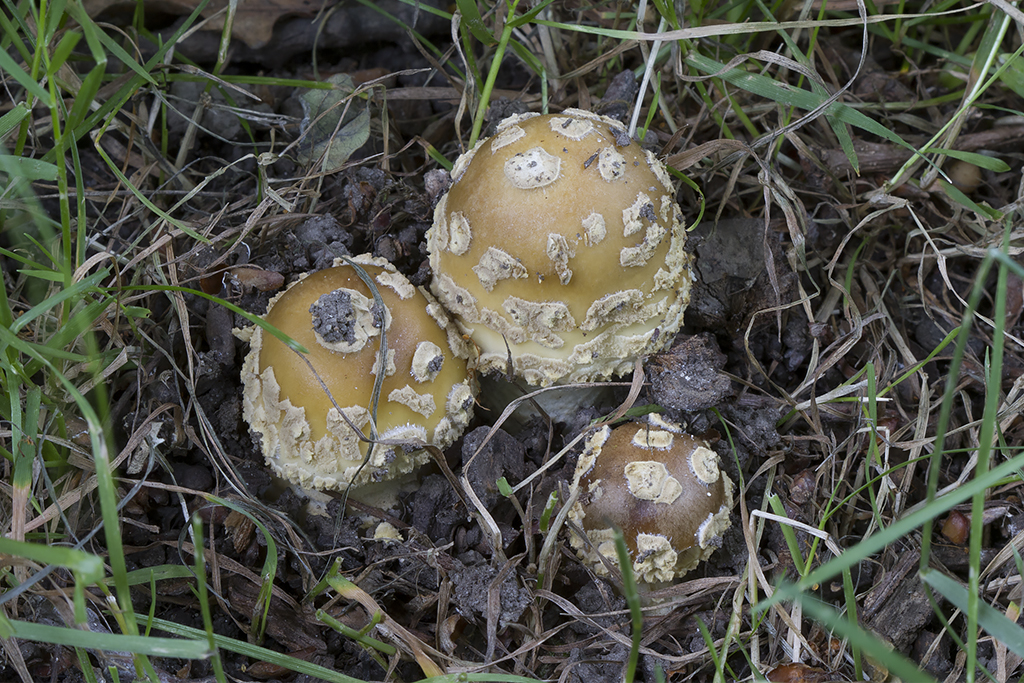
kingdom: Fungi
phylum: Basidiomycota
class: Agaricomycetes
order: Agaricales
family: Amanitaceae
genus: Amanita
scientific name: Amanita ceciliae
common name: stor kam-fluesvamp
